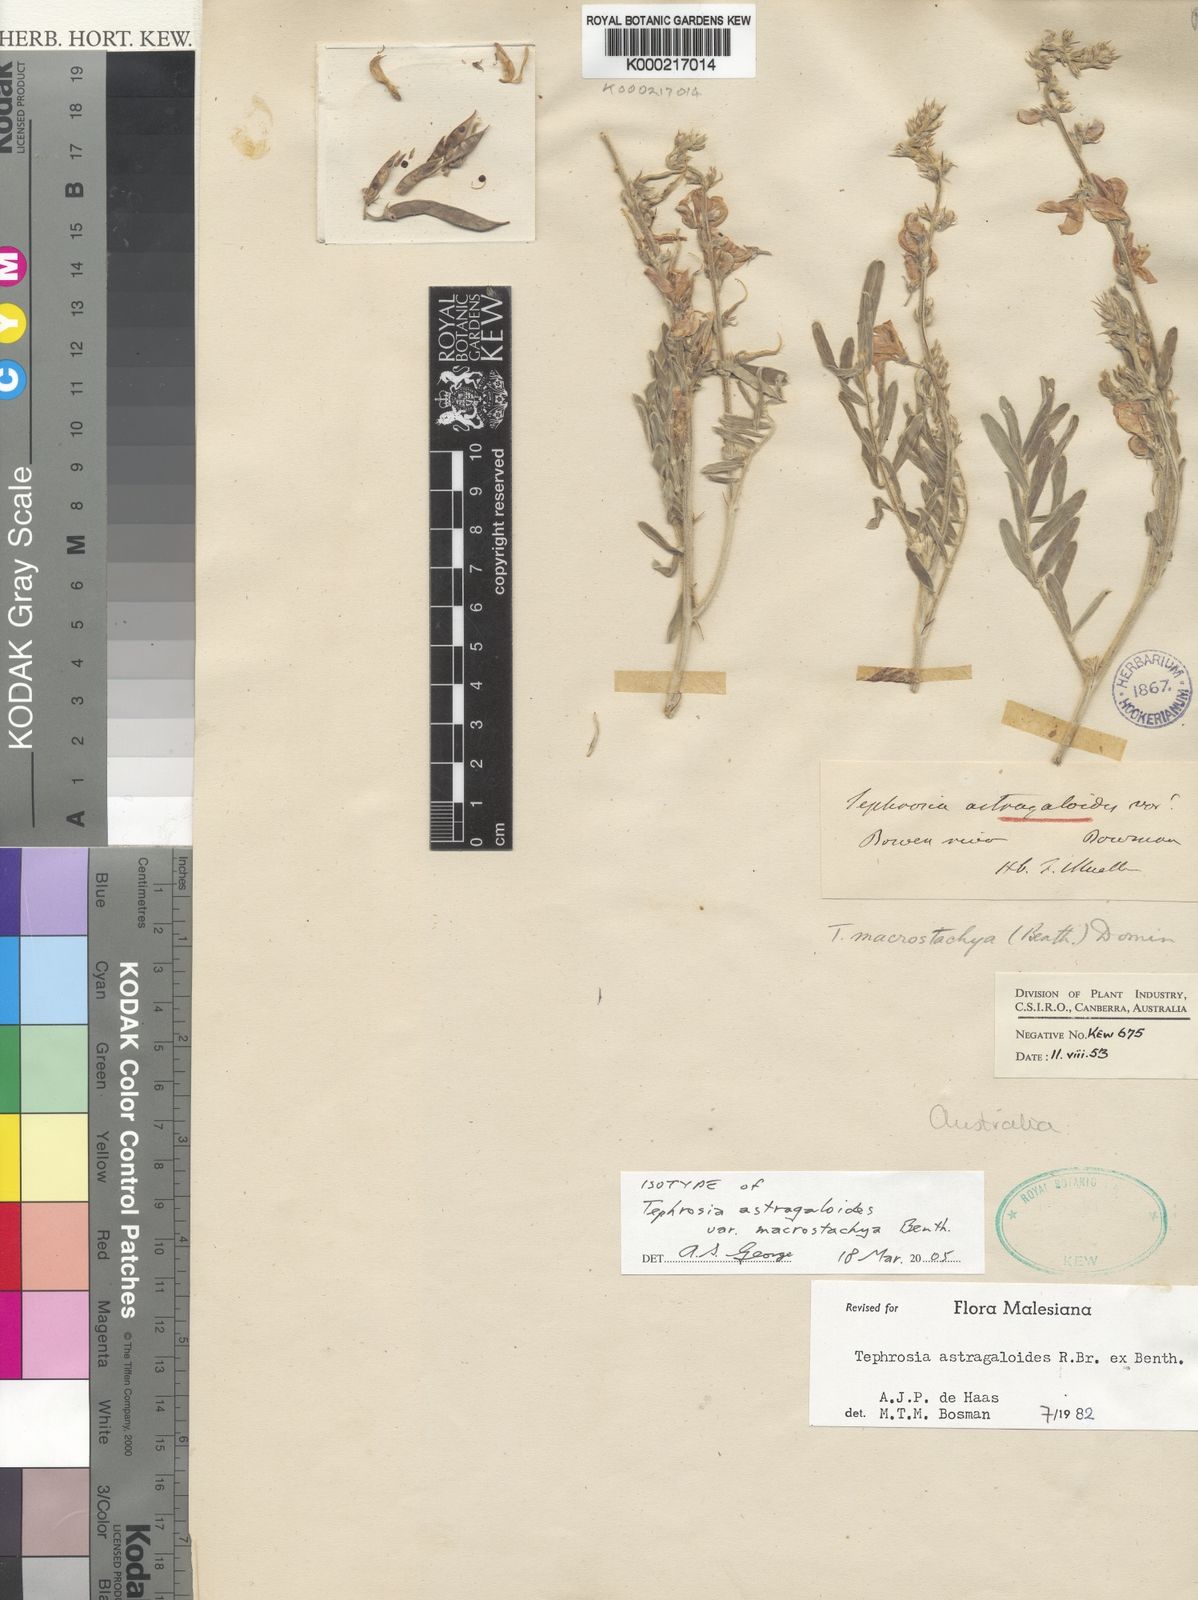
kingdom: Plantae
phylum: Tracheophyta
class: Magnoliopsida
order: Fabales
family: Fabaceae
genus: Tephrosia
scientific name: Tephrosia astragaloides
